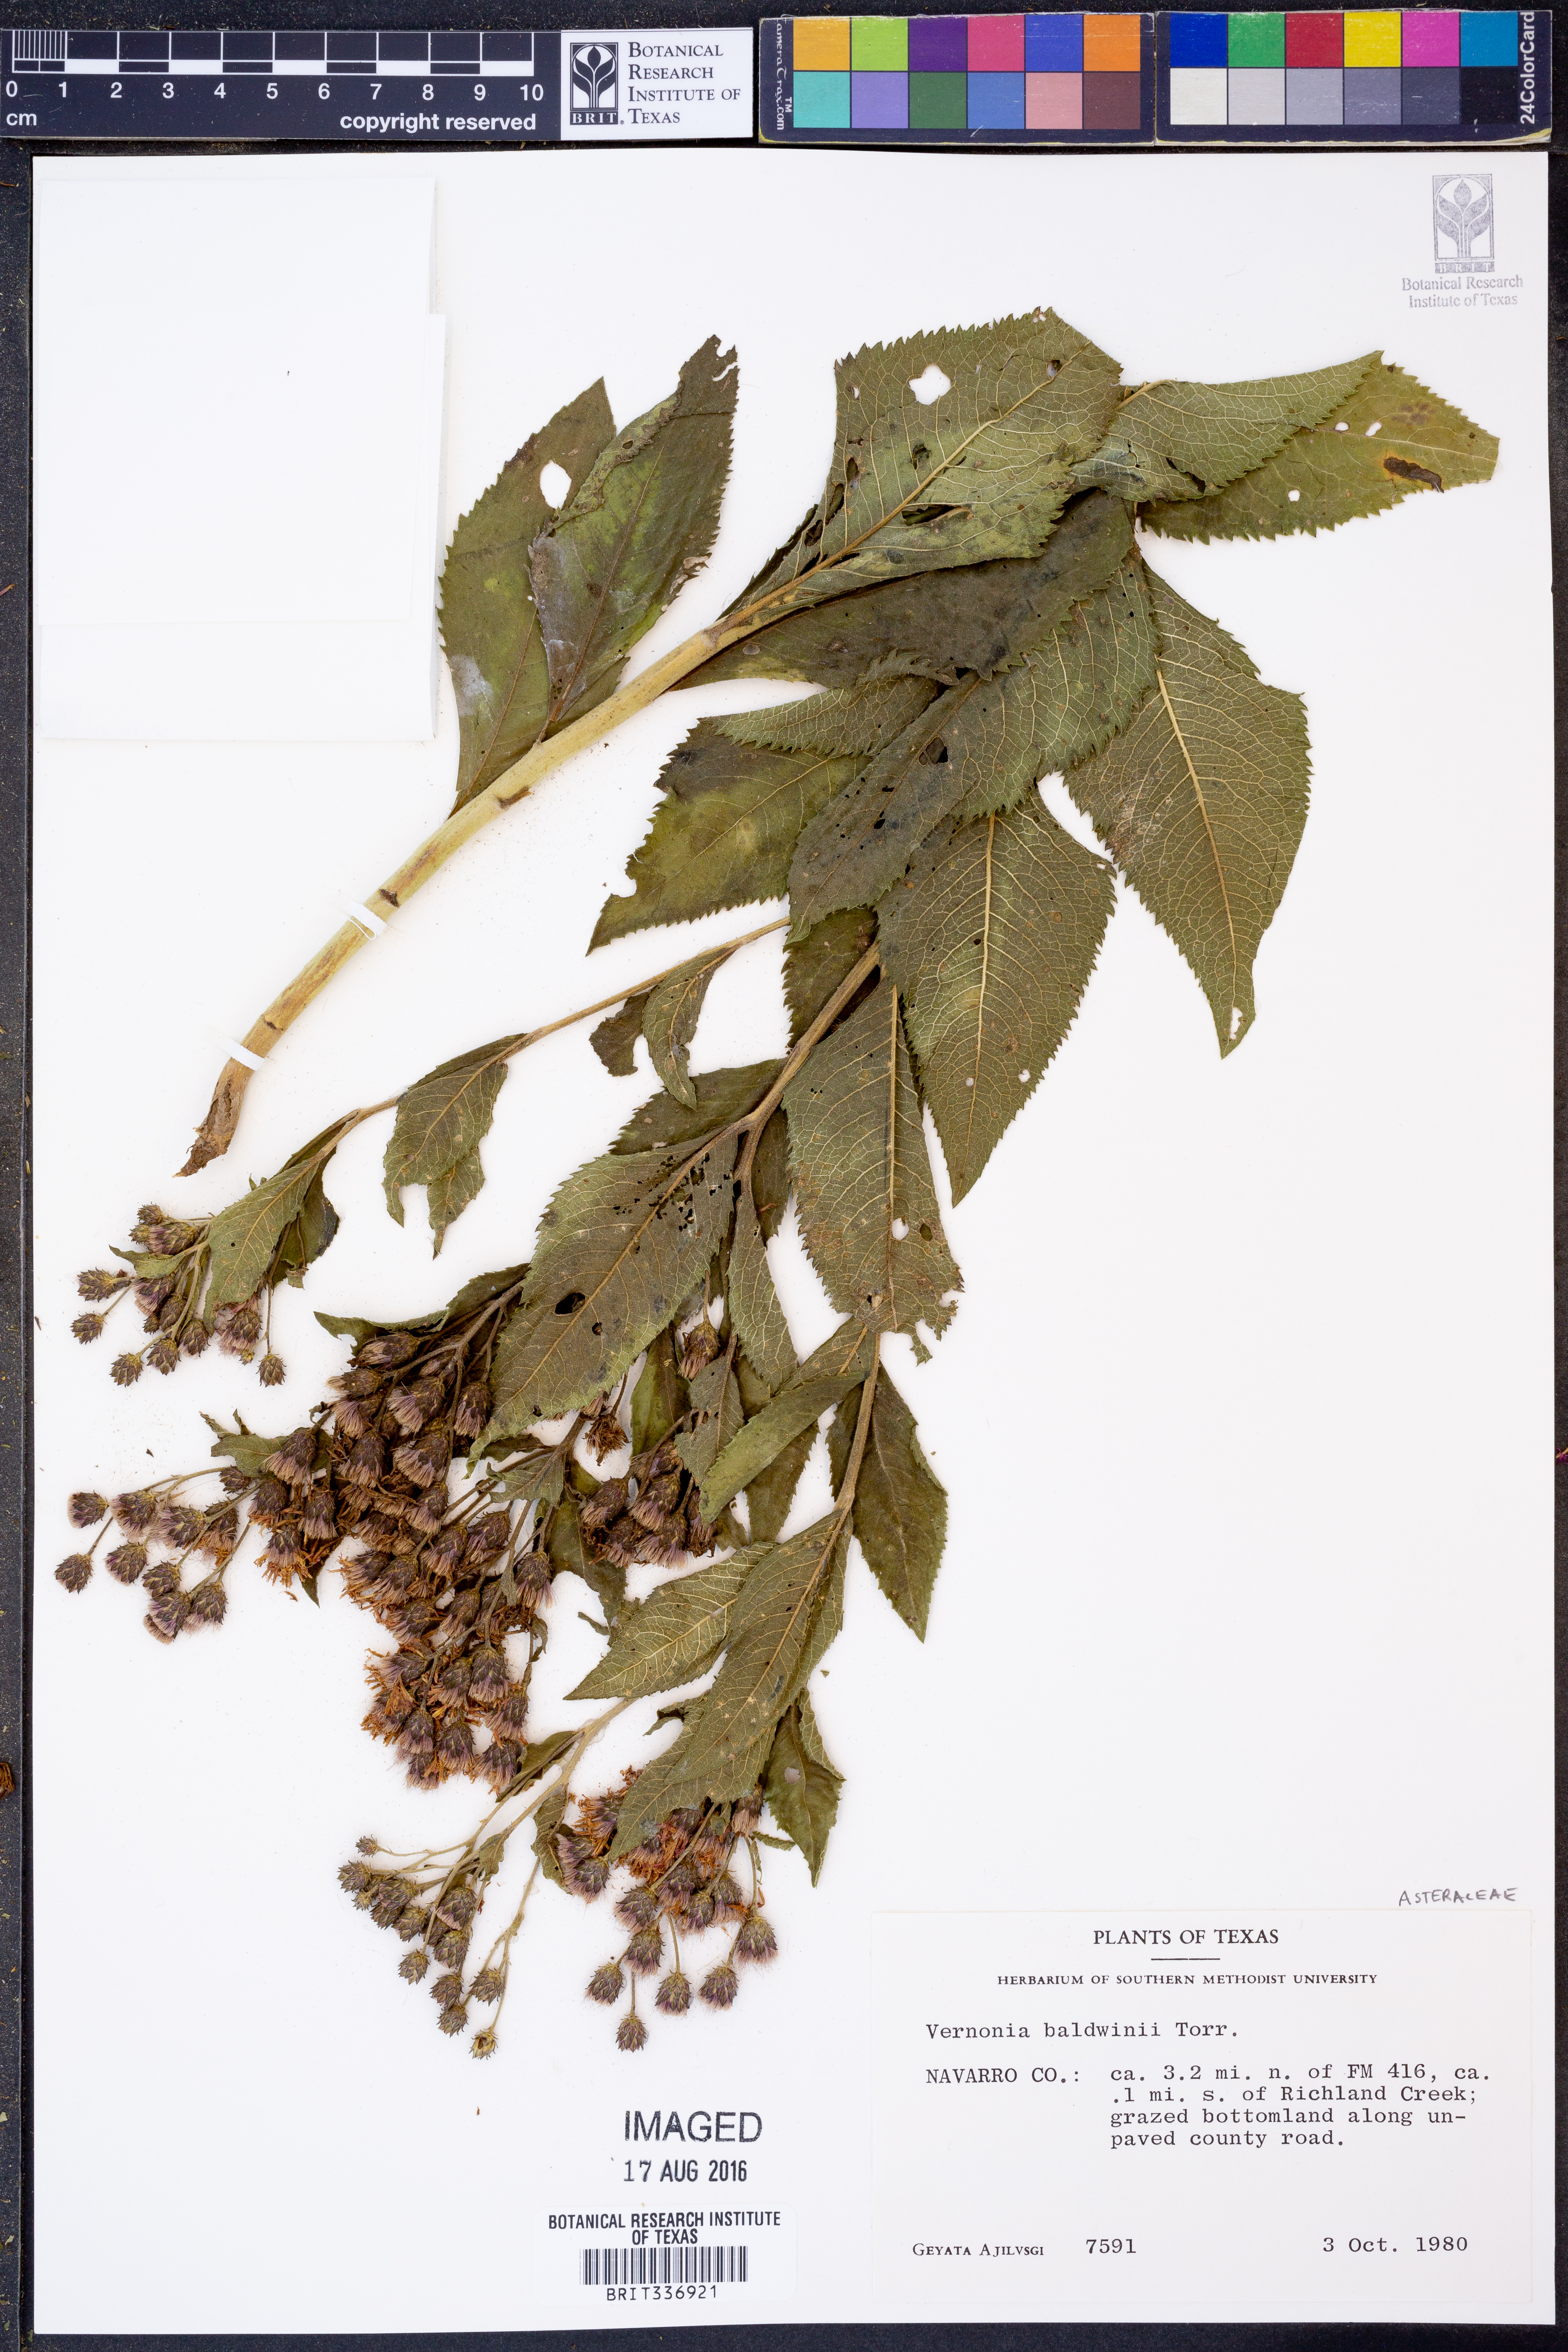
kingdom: Plantae
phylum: Tracheophyta
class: Magnoliopsida
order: Asterales
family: Asteraceae
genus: Vernonia
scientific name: Vernonia baldwinii
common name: Western ironweed
